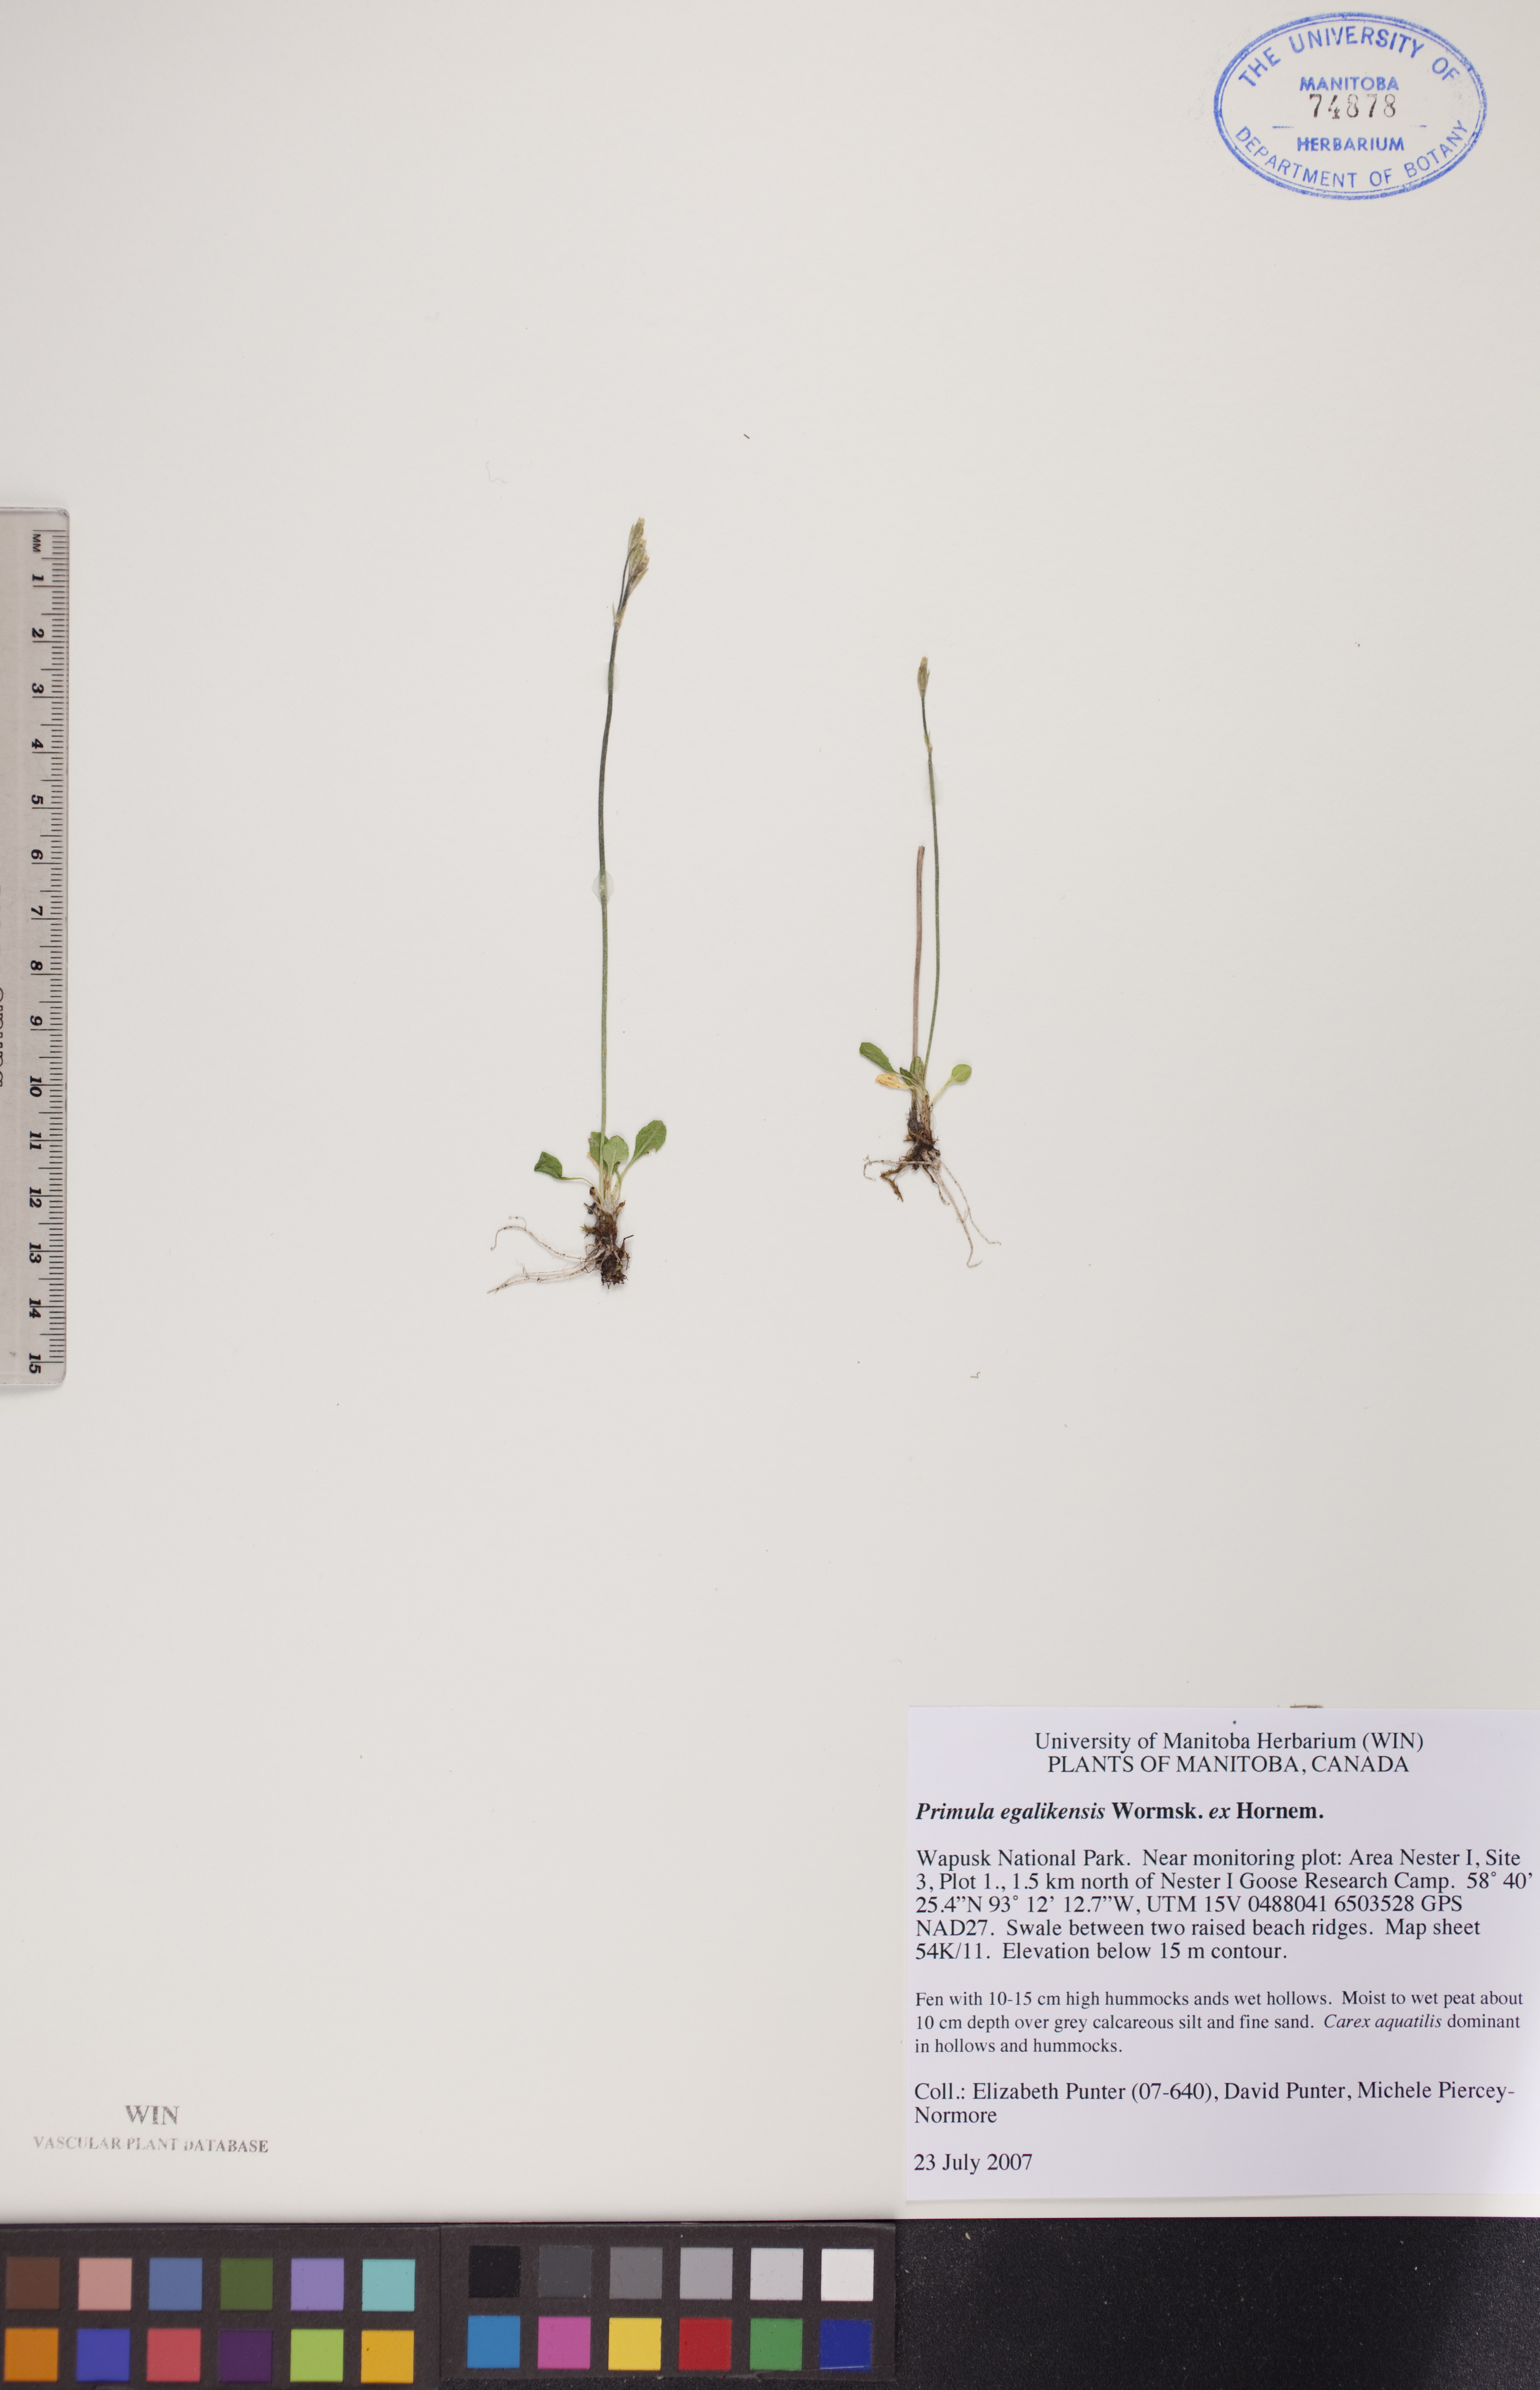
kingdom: Plantae
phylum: Tracheophyta
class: Magnoliopsida
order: Ericales
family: Primulaceae
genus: Primula
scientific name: Primula egaliksensis
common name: Greenland primrose
